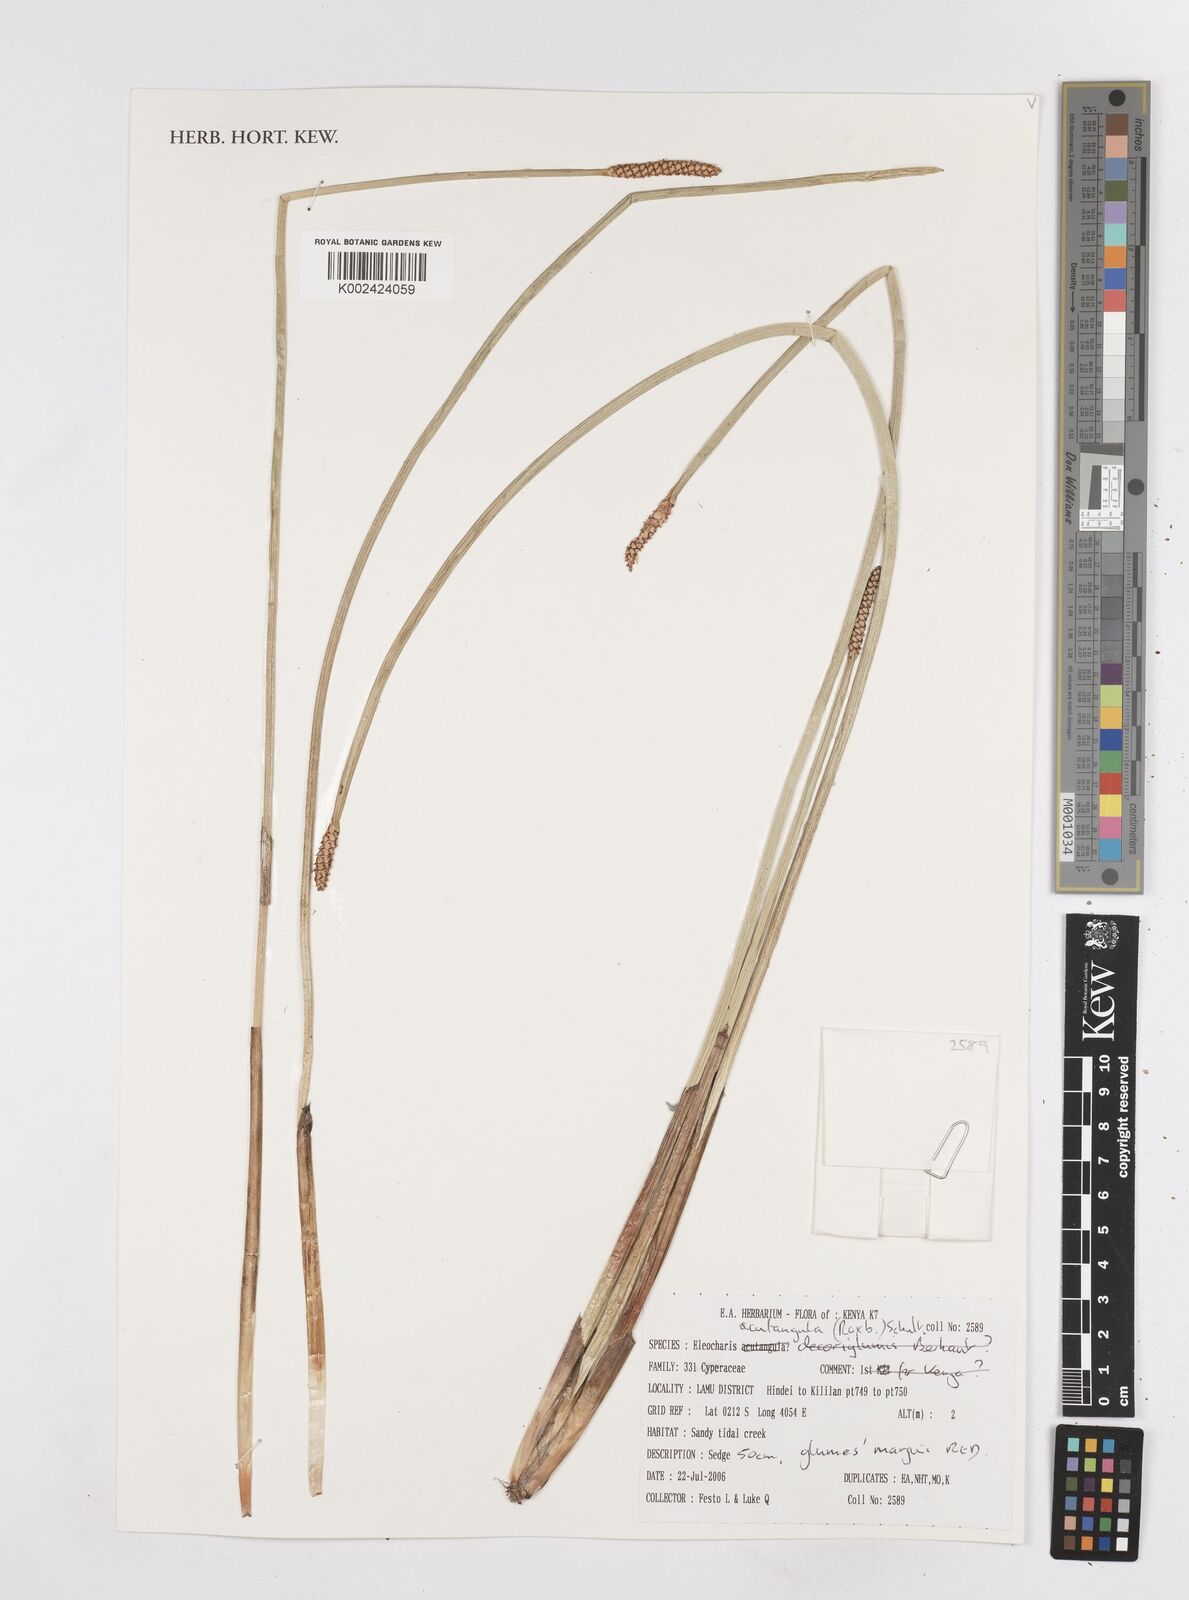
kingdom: Plantae
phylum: Tracheophyta
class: Liliopsida
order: Poales
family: Cyperaceae
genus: Eleocharis
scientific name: Eleocharis acutangula
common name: Acute spikerush
